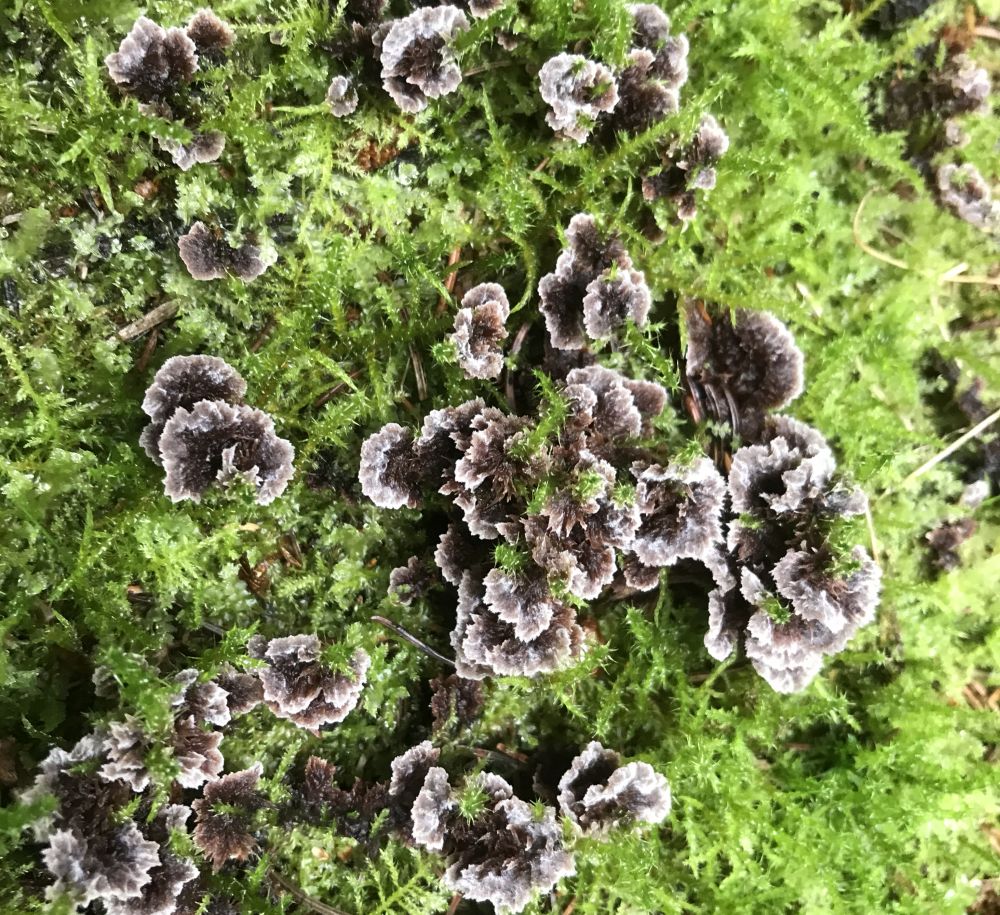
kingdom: Fungi
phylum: Basidiomycota
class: Agaricomycetes
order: Thelephorales
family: Thelephoraceae
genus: Thelephora
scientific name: Thelephora terrestris
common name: fliget frynsesvamp
